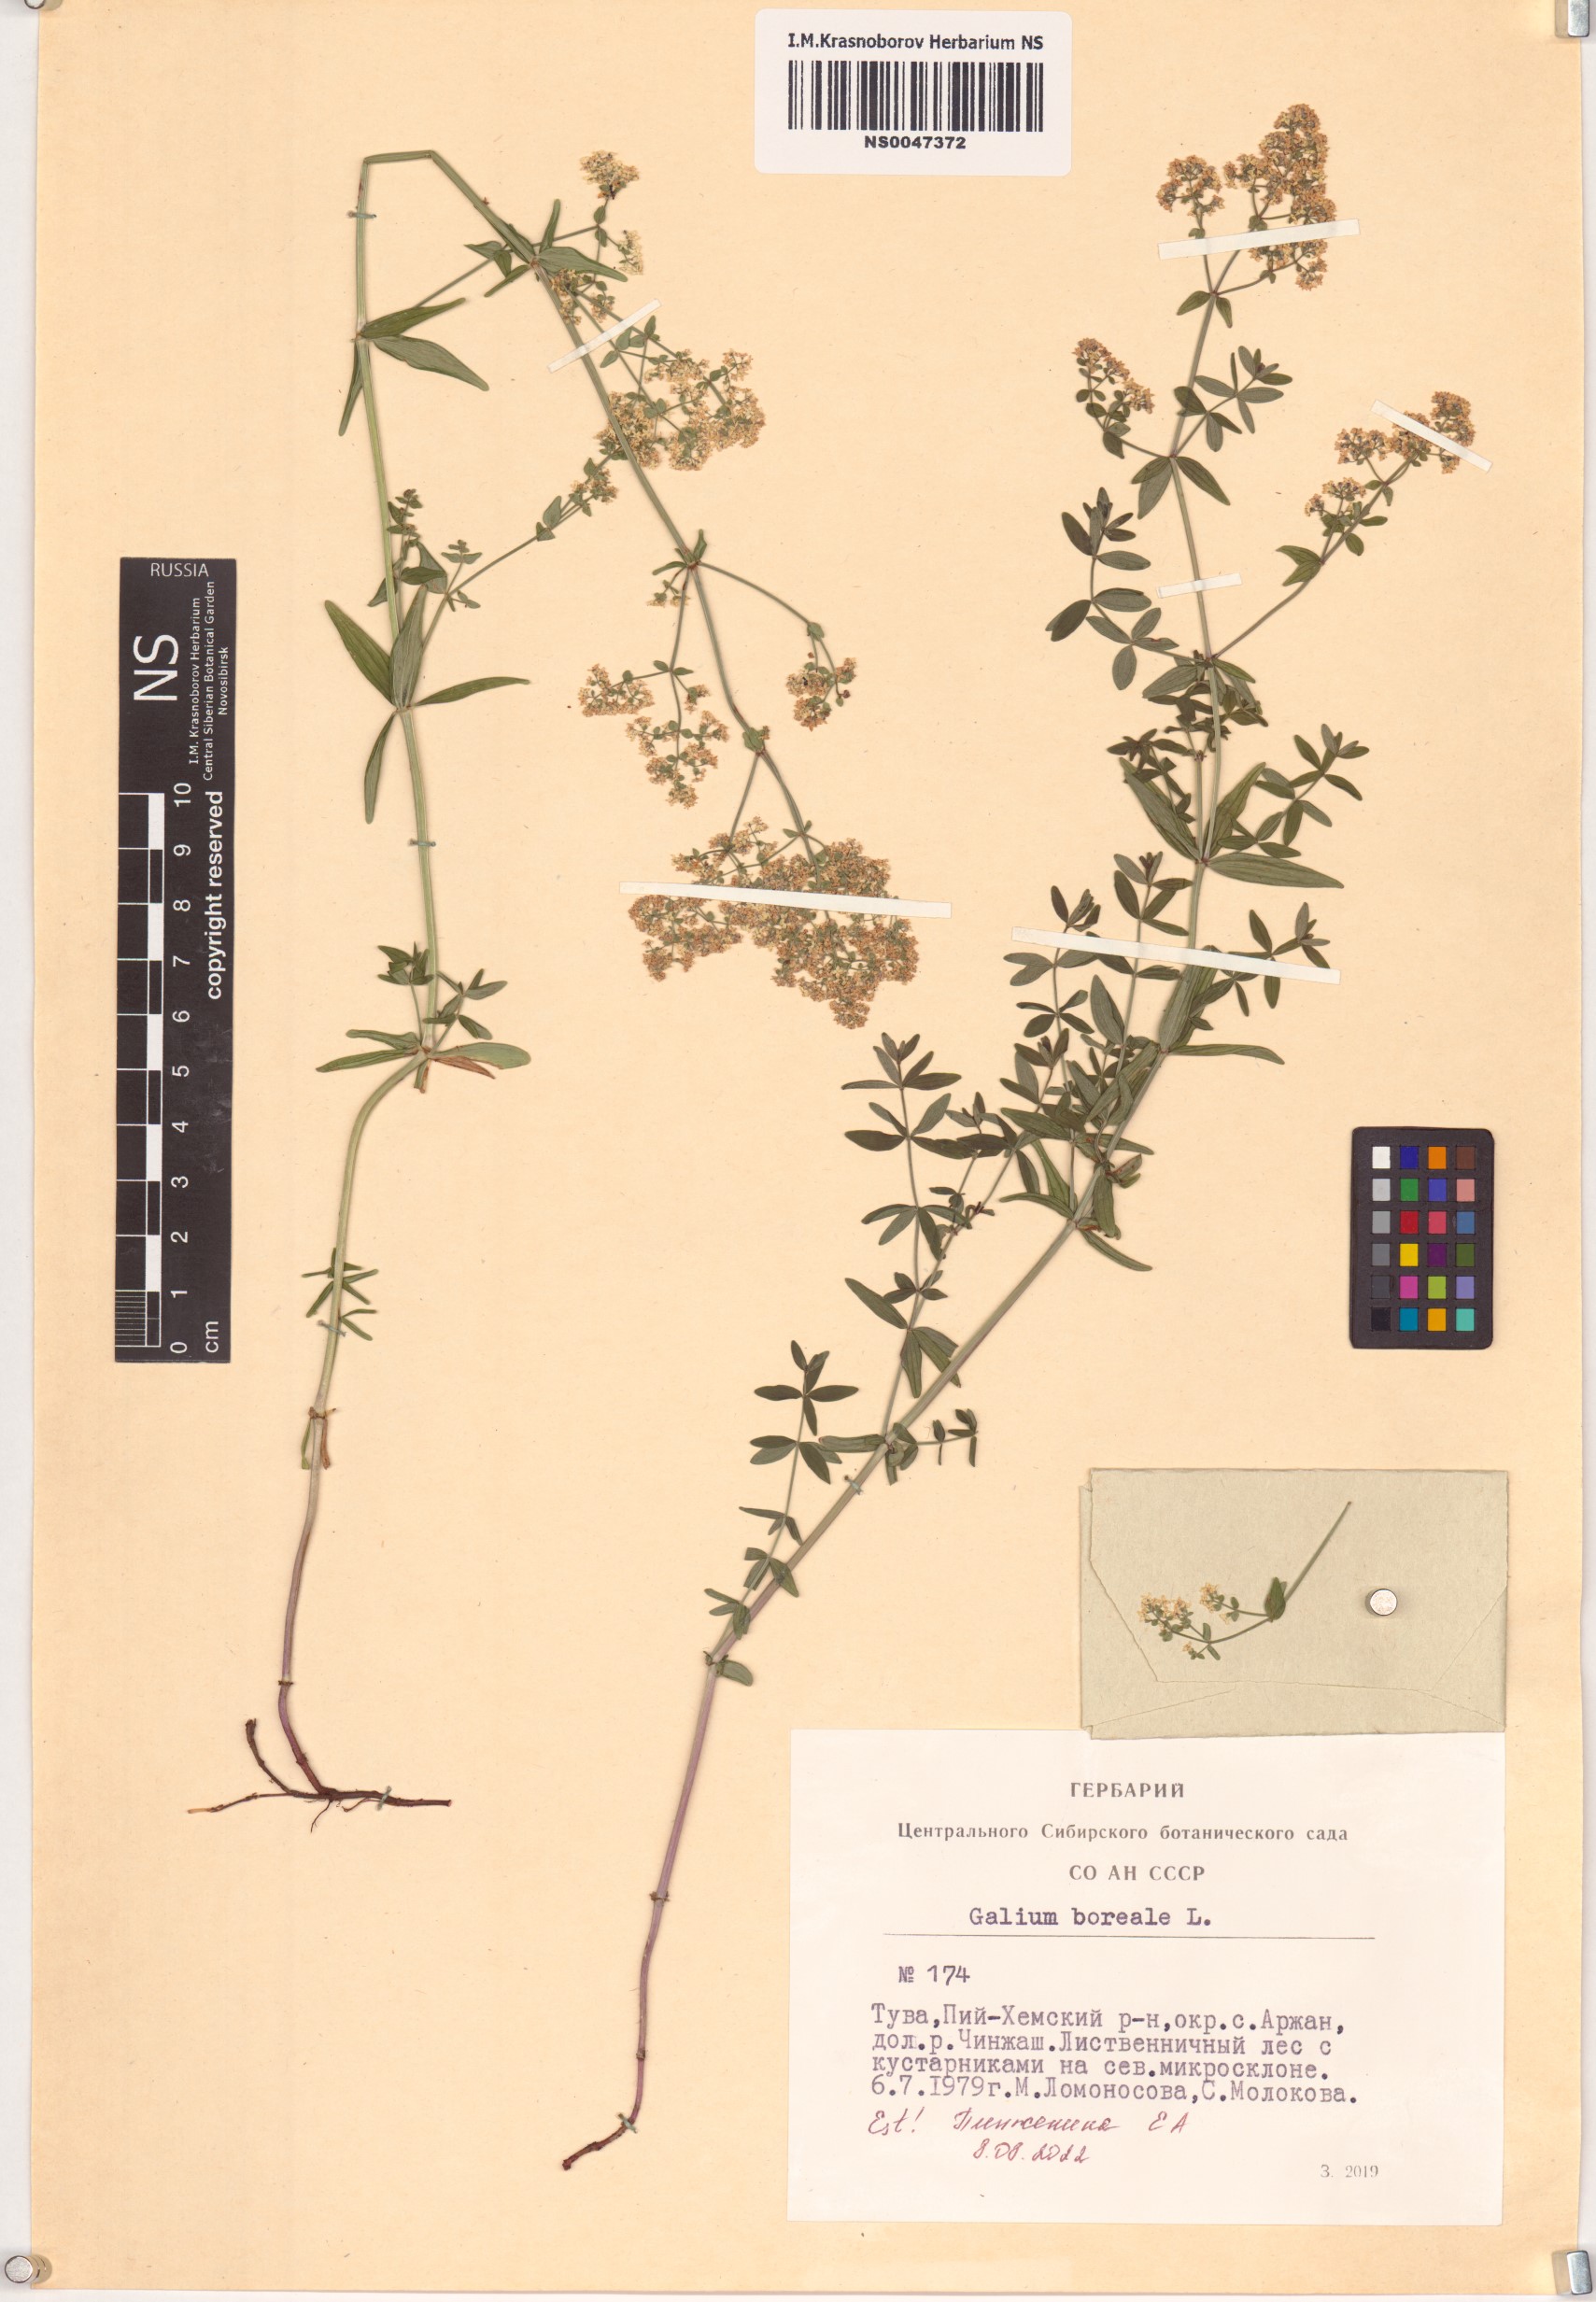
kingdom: Plantae
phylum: Tracheophyta
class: Magnoliopsida
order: Gentianales
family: Rubiaceae
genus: Galium
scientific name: Galium boreale
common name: Northern bedstraw
